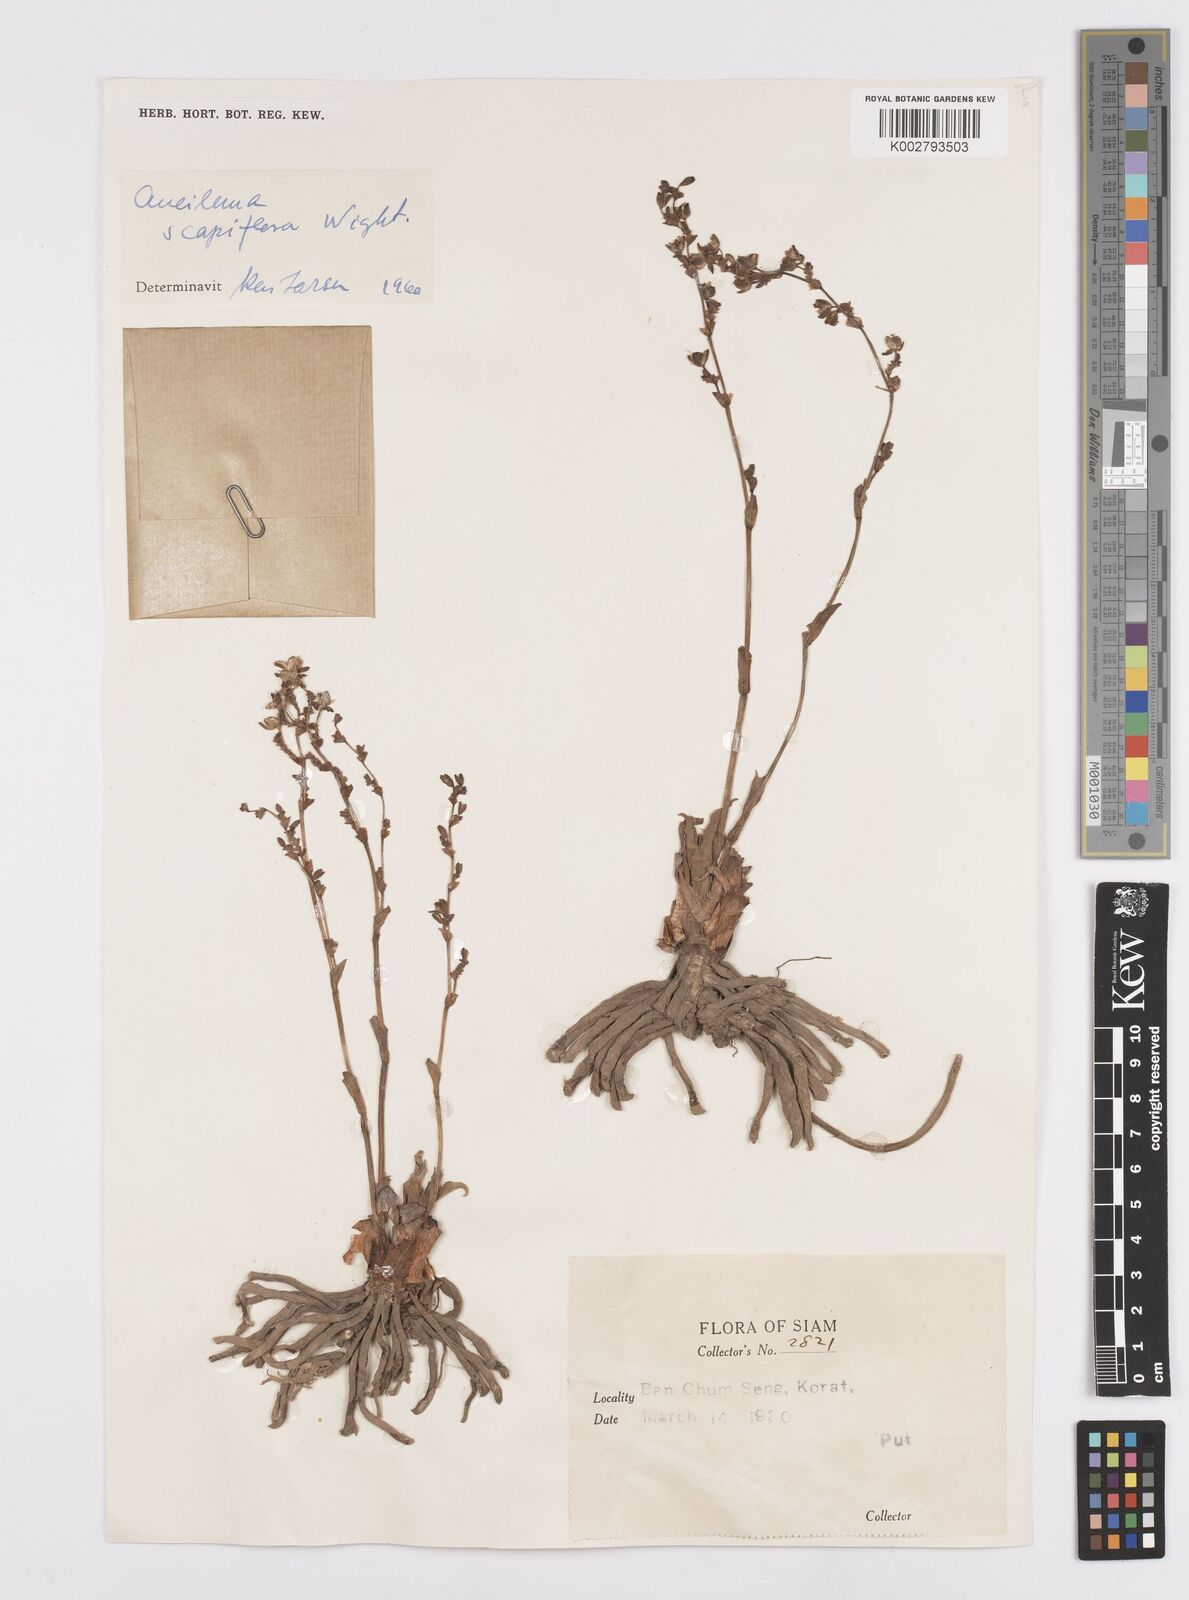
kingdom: Plantae
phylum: Tracheophyta
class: Liliopsida
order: Commelinales
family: Commelinaceae
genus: Murdannia
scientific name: Murdannia edulis
